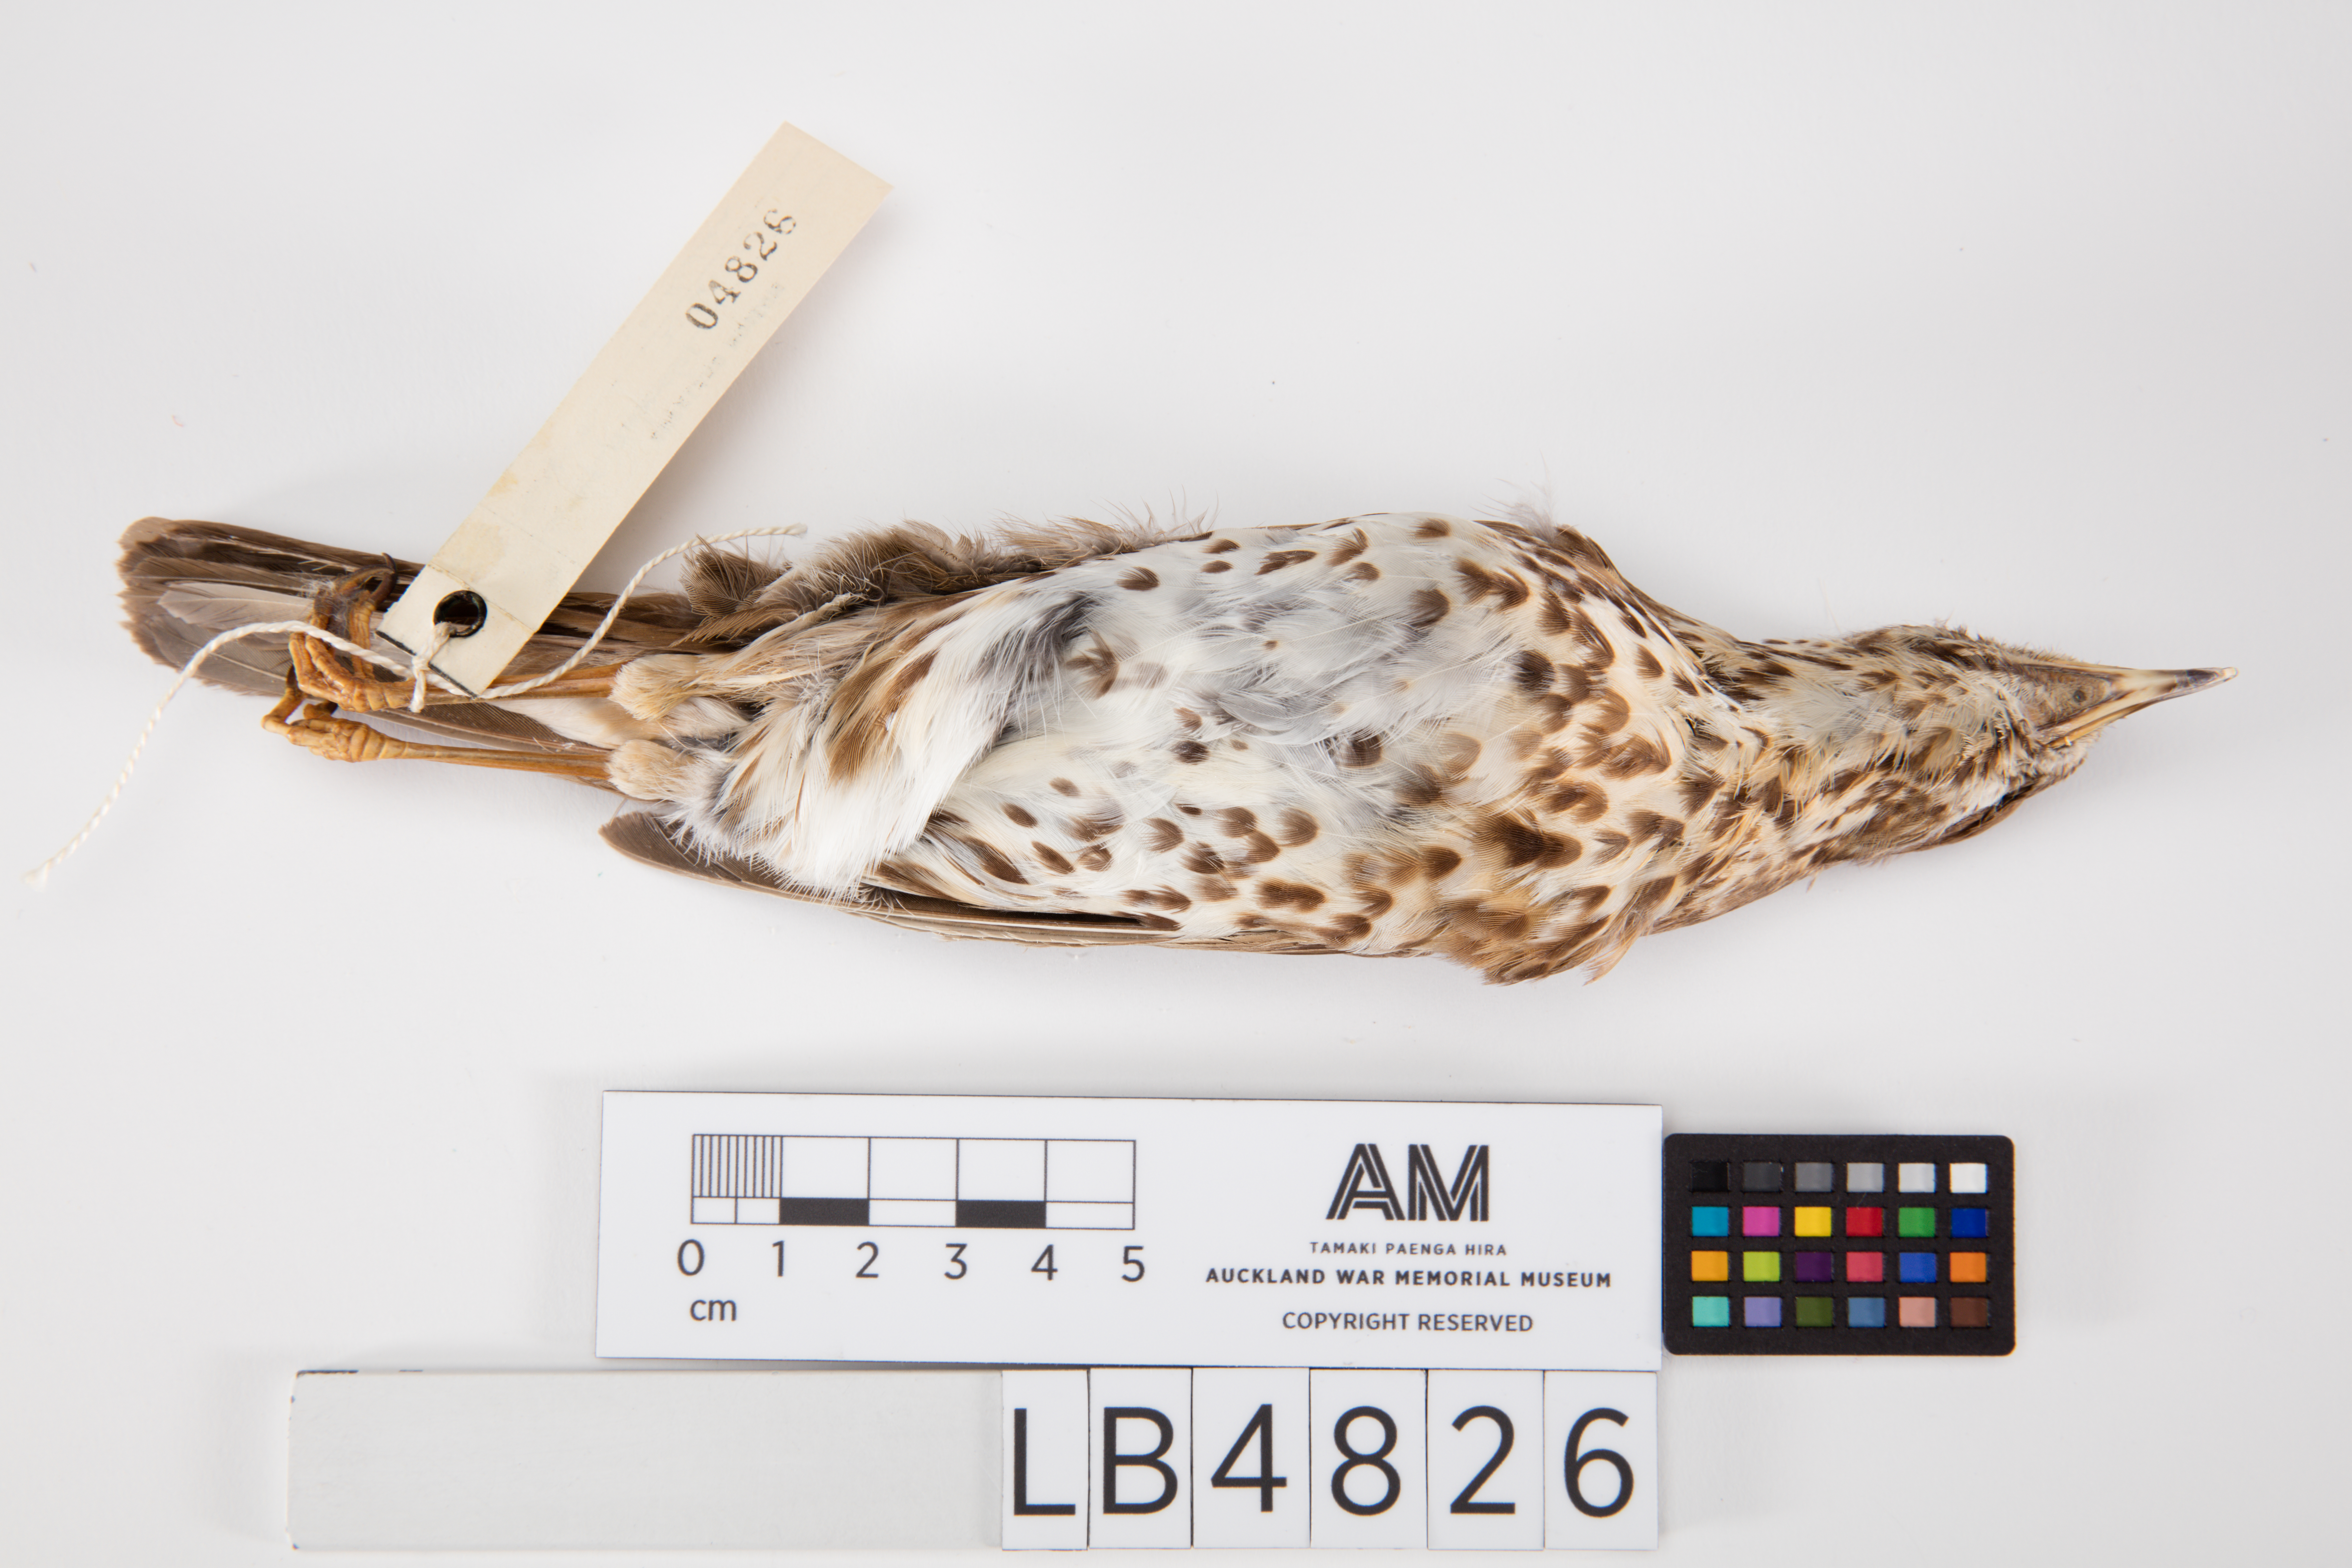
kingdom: Animalia
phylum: Chordata
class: Aves
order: Passeriformes
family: Turdidae
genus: Turdus
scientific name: Turdus philomelos
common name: Song thrush
